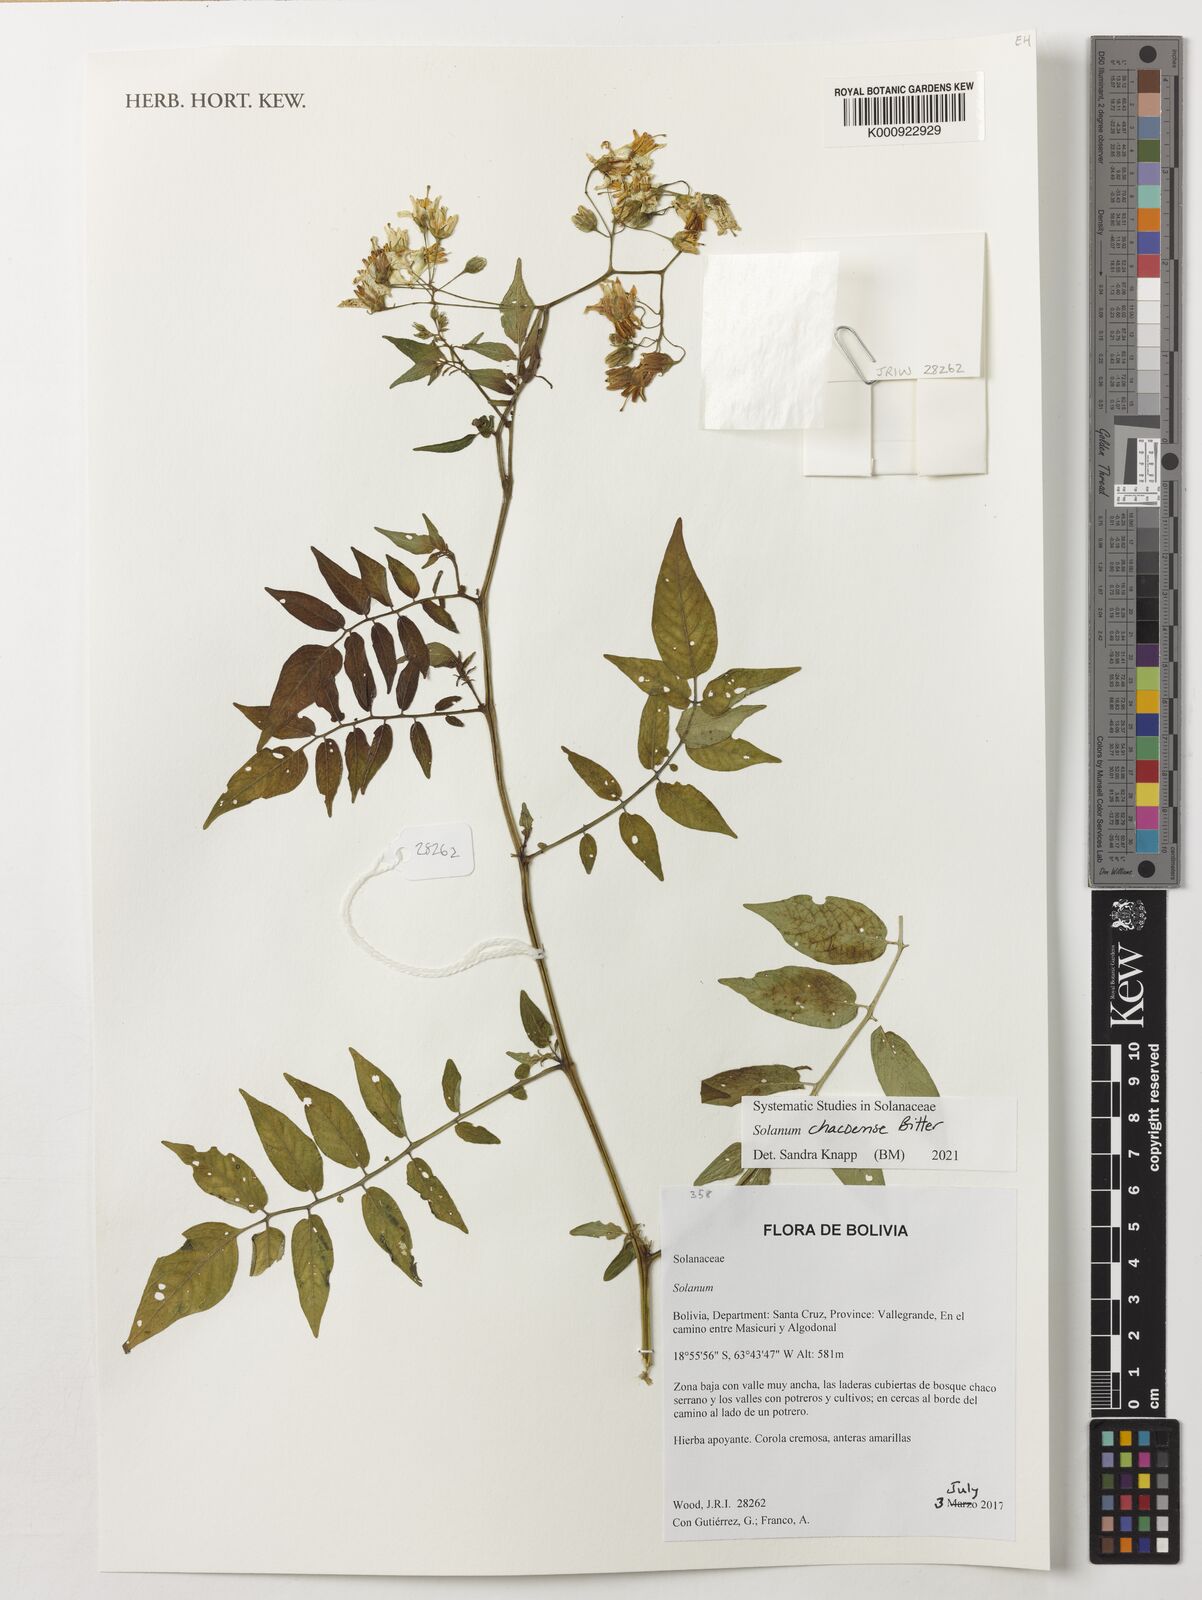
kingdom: Plantae
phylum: Tracheophyta
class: Magnoliopsida
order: Solanales
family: Solanaceae
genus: Solanum
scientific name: Solanum acutilobum
